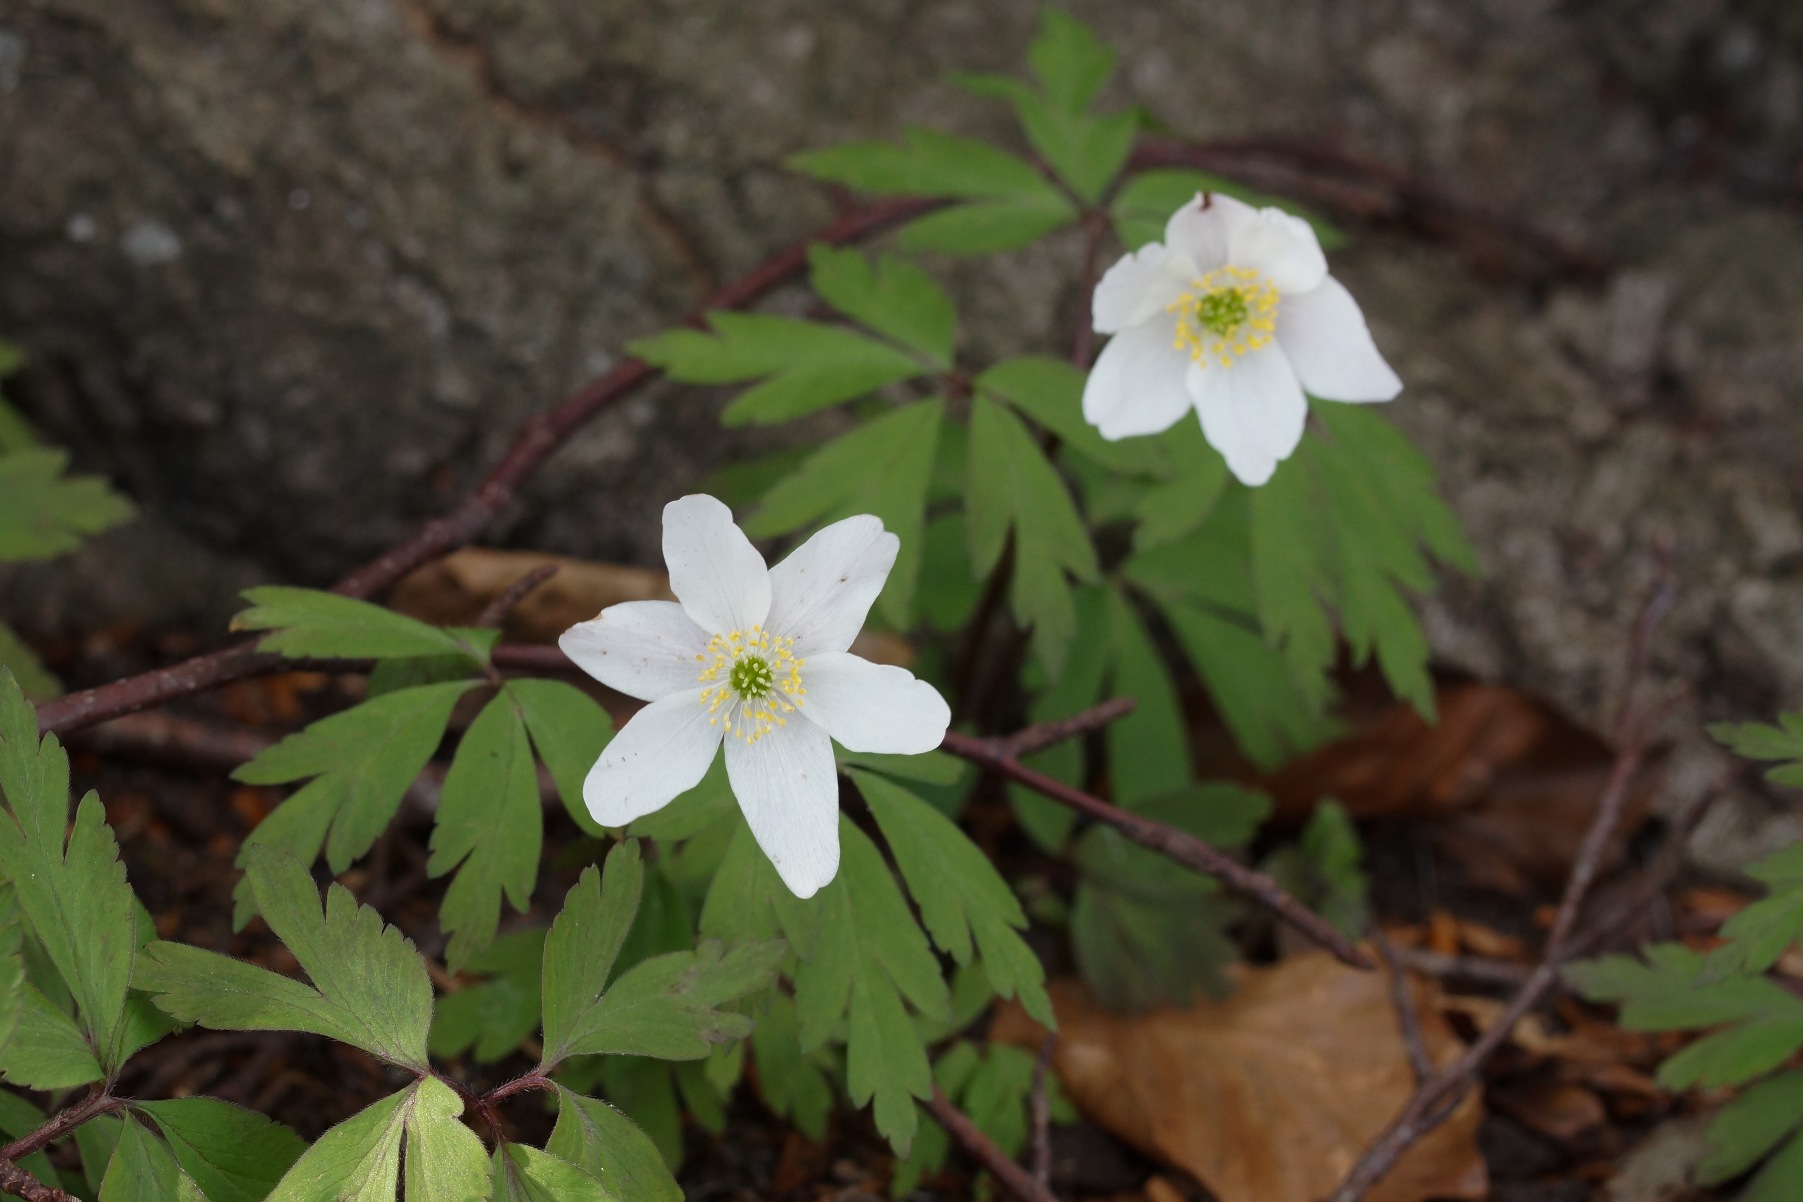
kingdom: Plantae
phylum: Tracheophyta
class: Magnoliopsida
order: Ranunculales
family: Ranunculaceae
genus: Anemone
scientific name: Anemone nemorosa
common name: Hvid anemone
